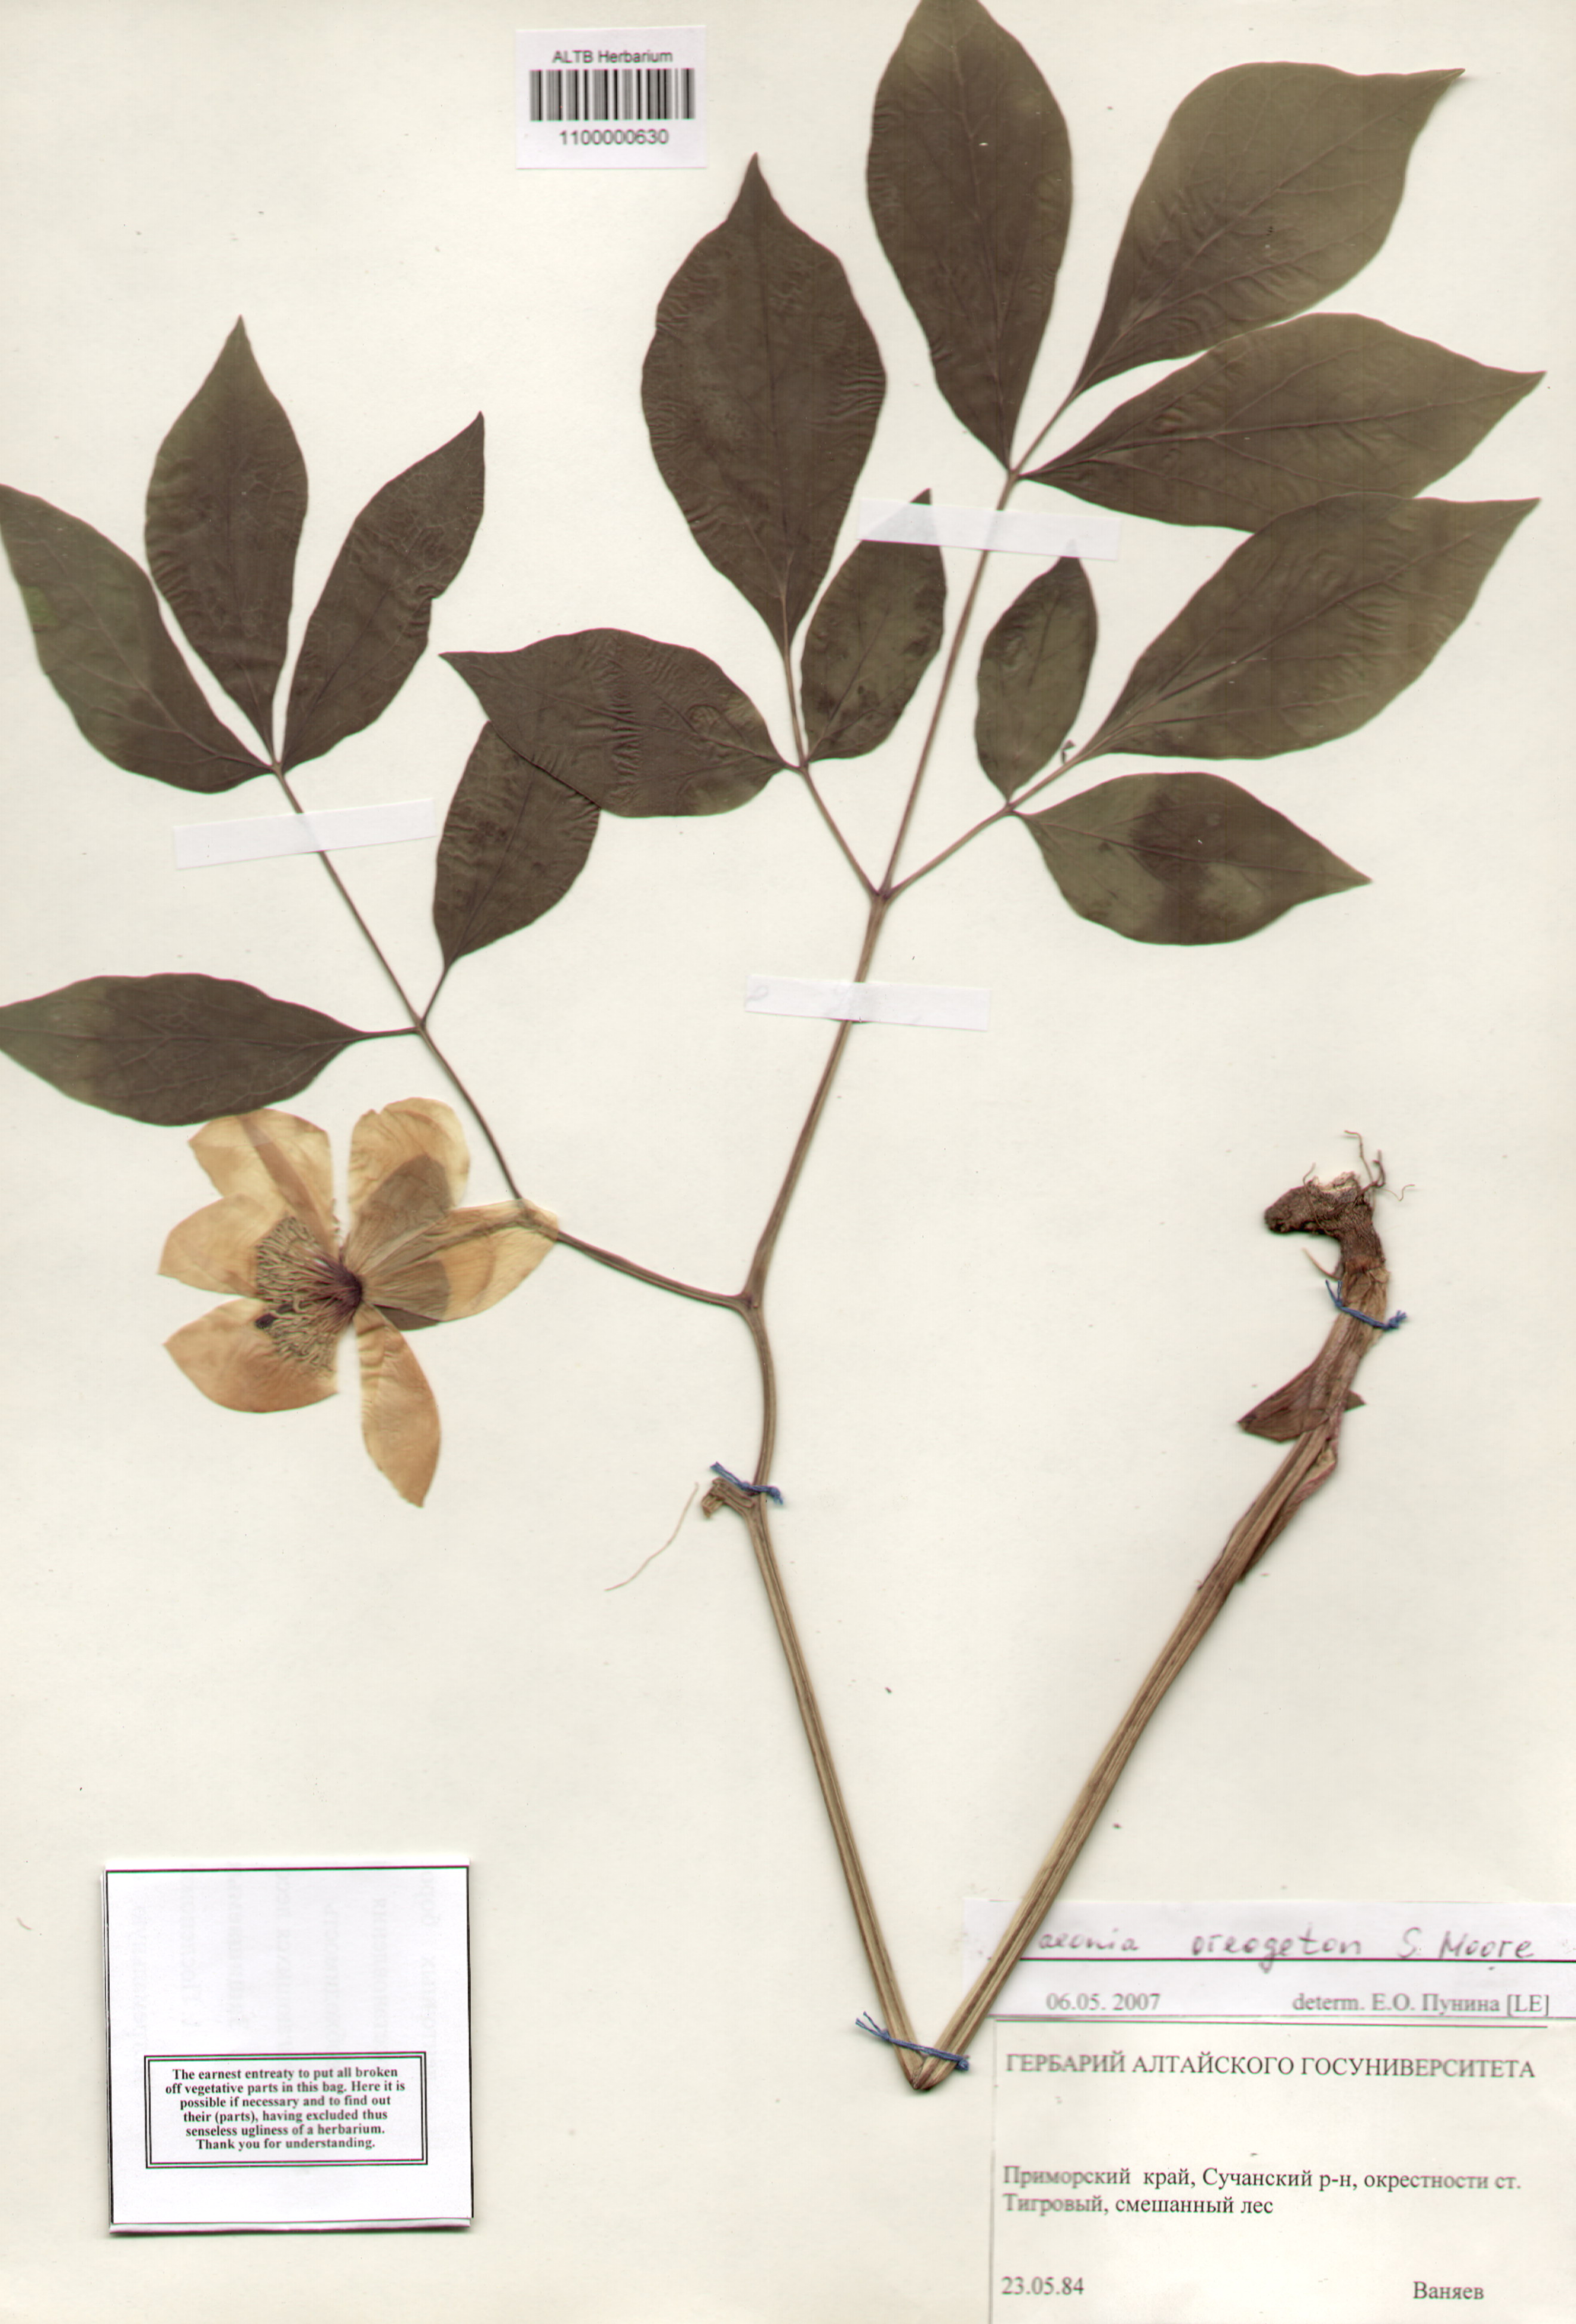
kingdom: Plantae
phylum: Tracheophyta
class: Magnoliopsida
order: Saxifragales
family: Paeoniaceae
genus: Paeonia
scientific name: Paeonia obovata
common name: Chinese peony
